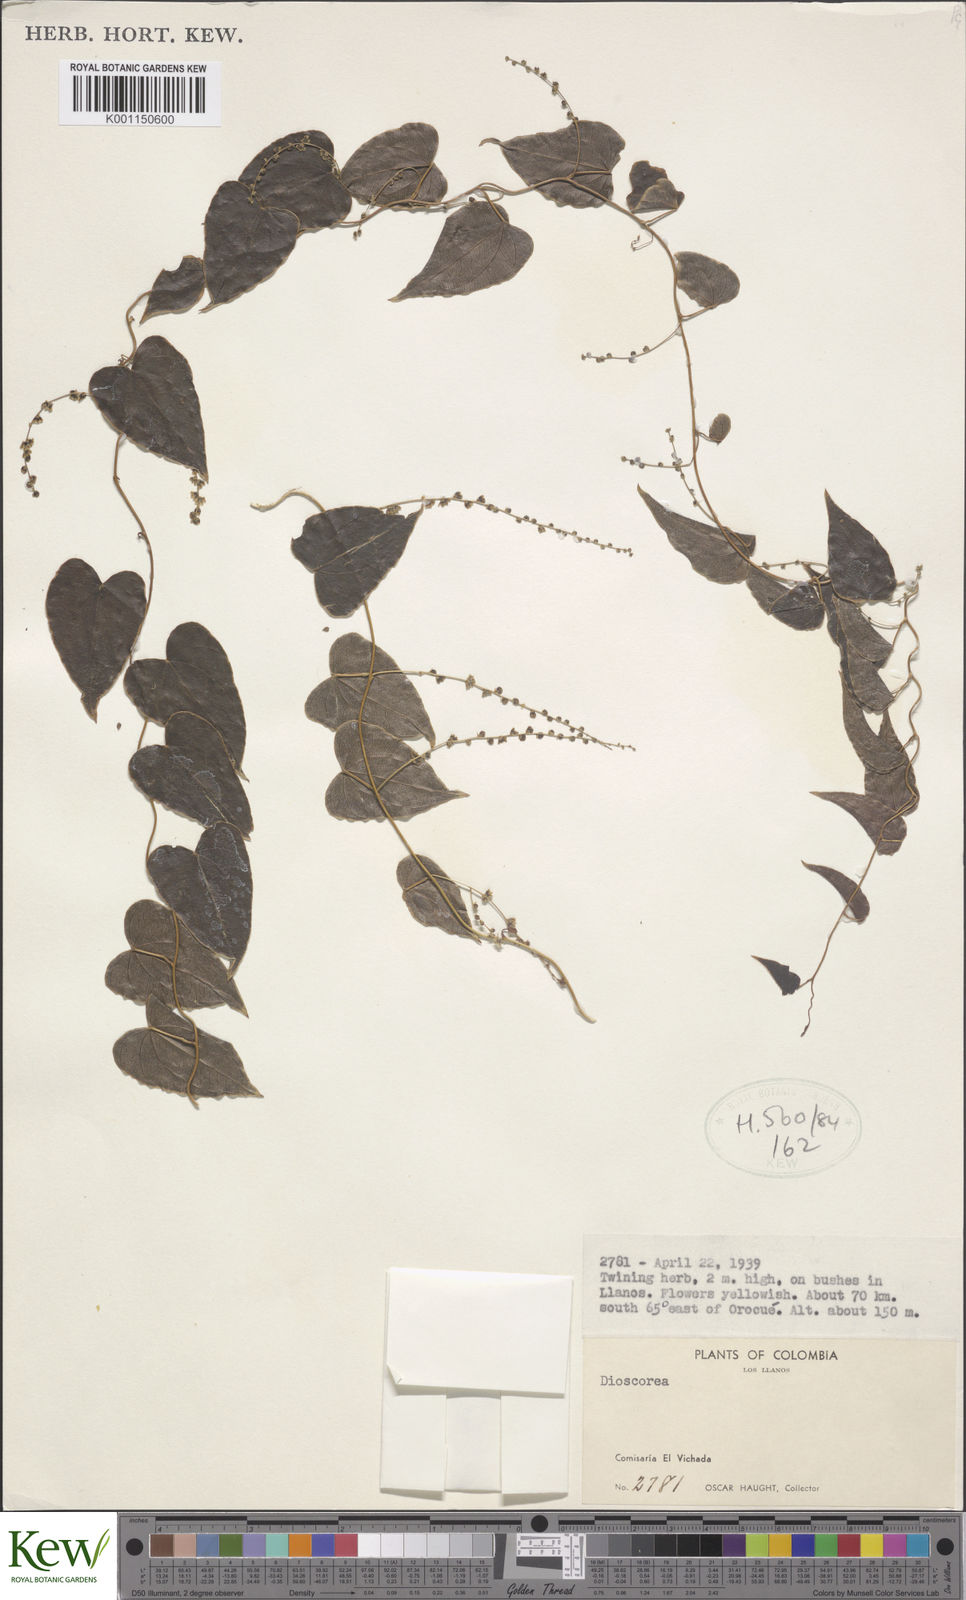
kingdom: Plantae
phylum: Tracheophyta
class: Liliopsida
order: Dioscoreales
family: Dioscoreaceae
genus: Dioscorea
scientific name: Dioscorea
